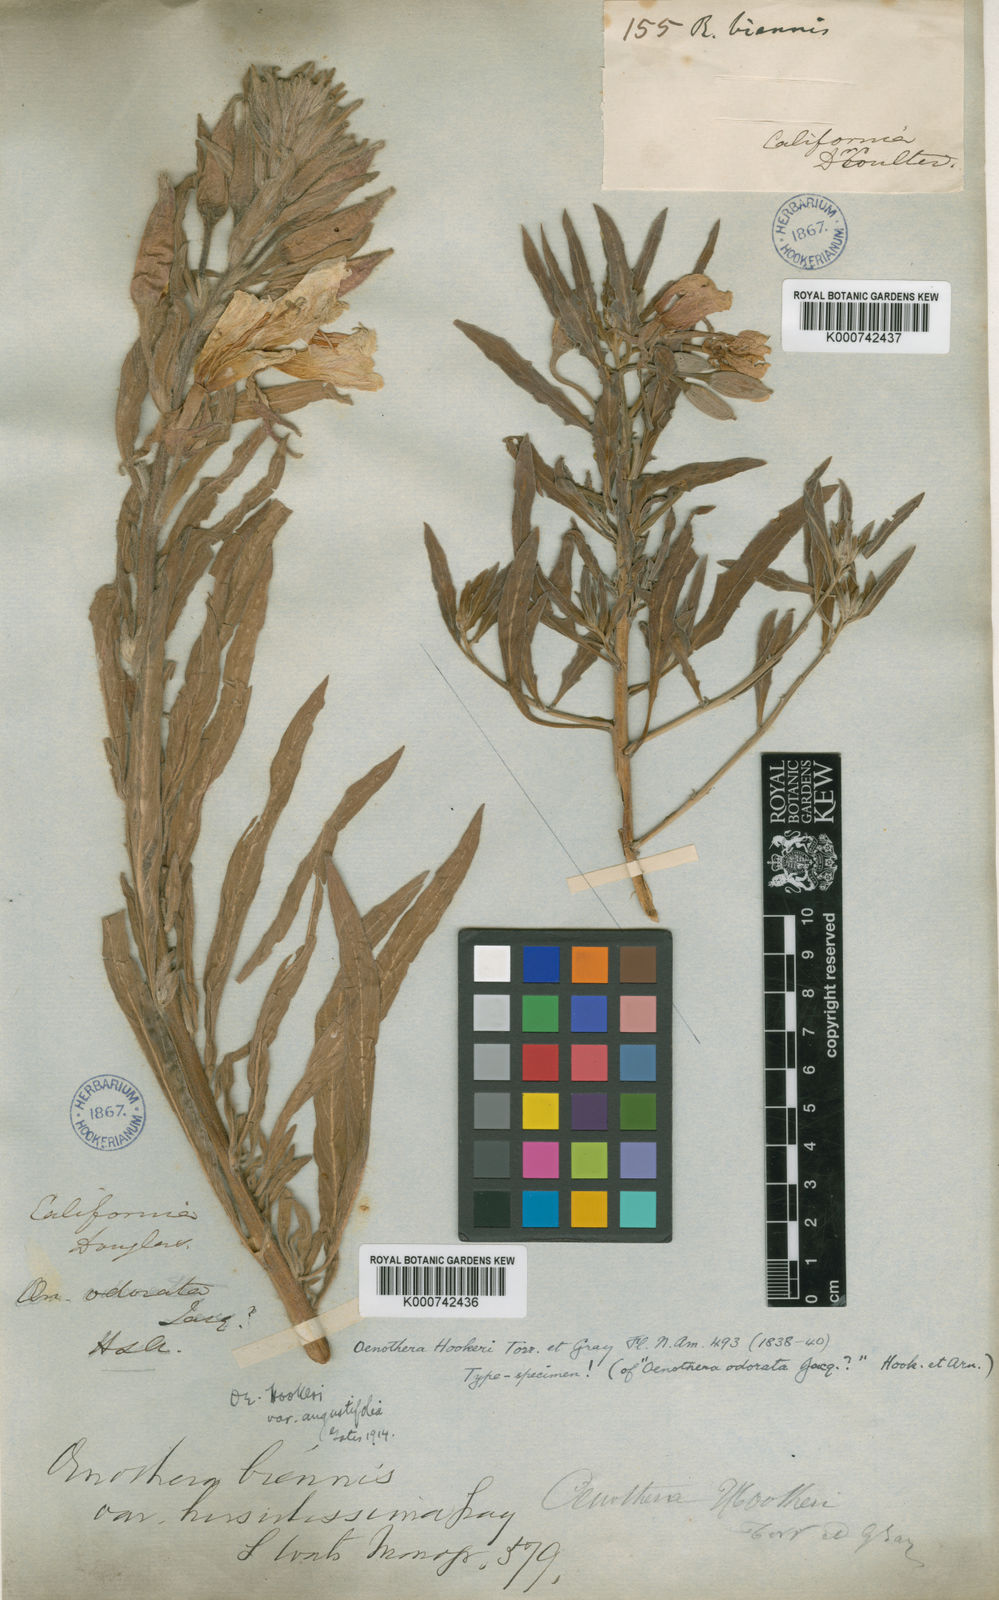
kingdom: Plantae
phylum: Tracheophyta
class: Magnoliopsida
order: Myrtales
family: Onagraceae
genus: Oenothera
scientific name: Oenothera elata
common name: Hooker's evening-primrose
